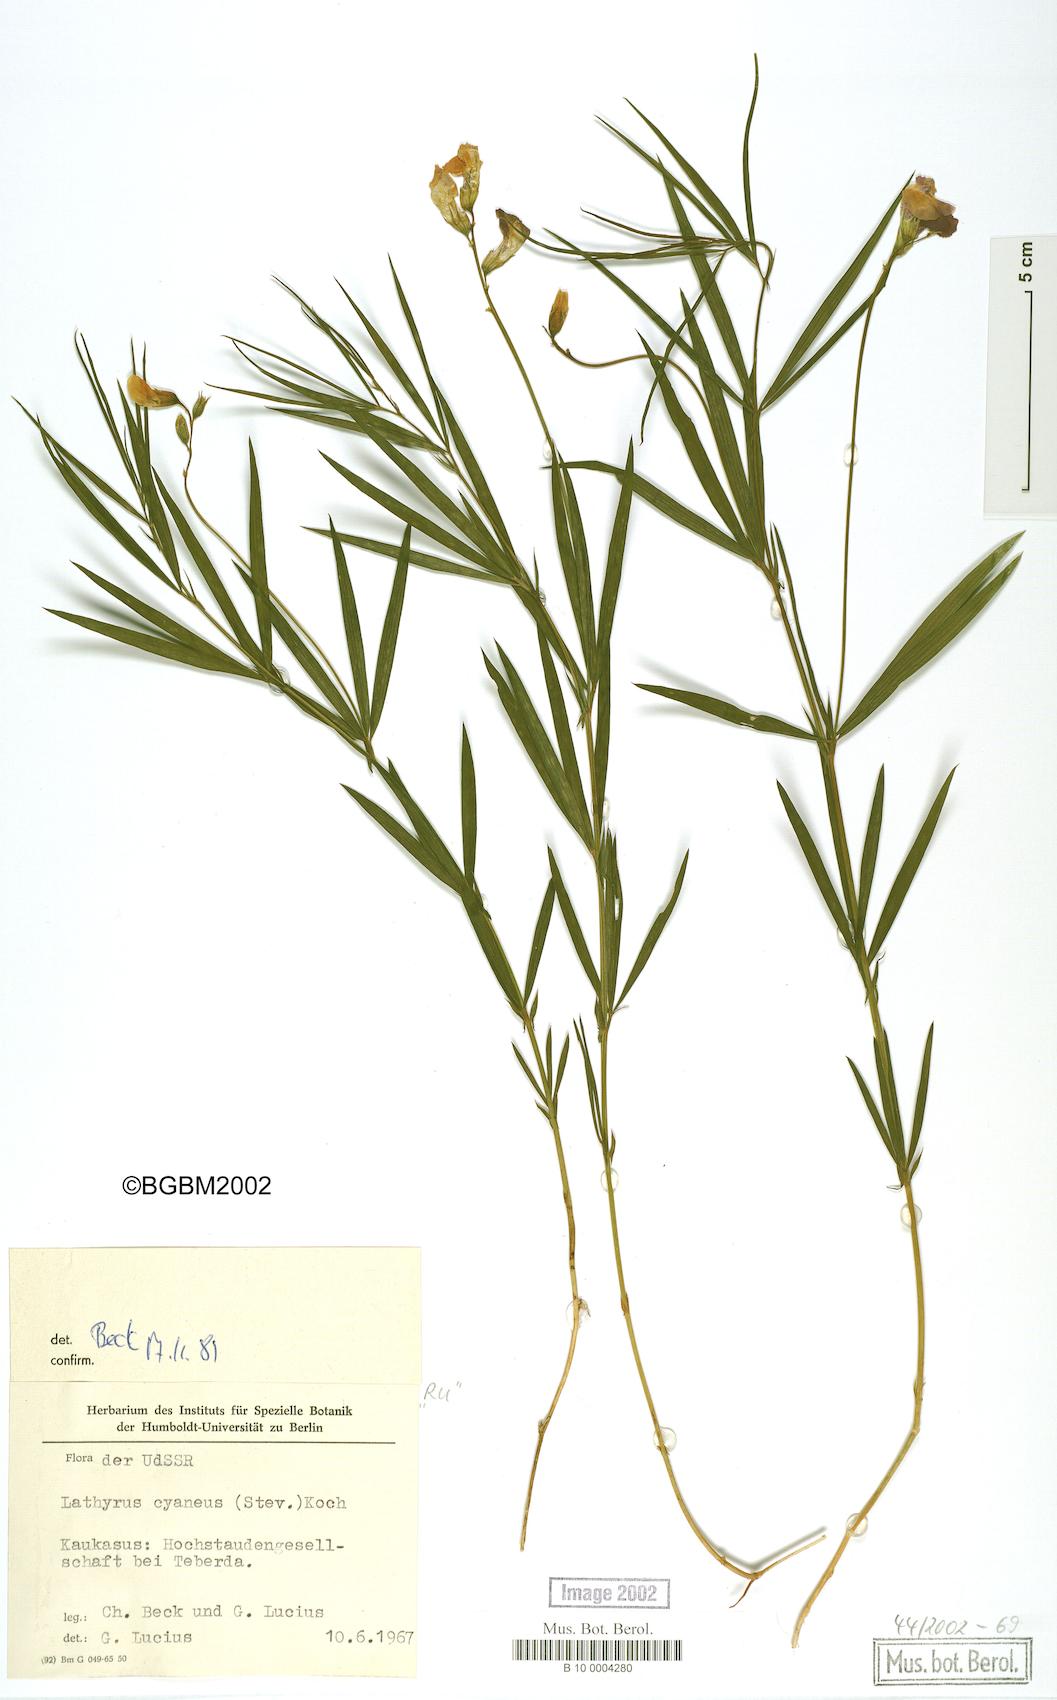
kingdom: Plantae
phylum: Tracheophyta
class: Magnoliopsida
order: Fabales
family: Fabaceae
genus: Lathyrus
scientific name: Lathyrus cyaneus
